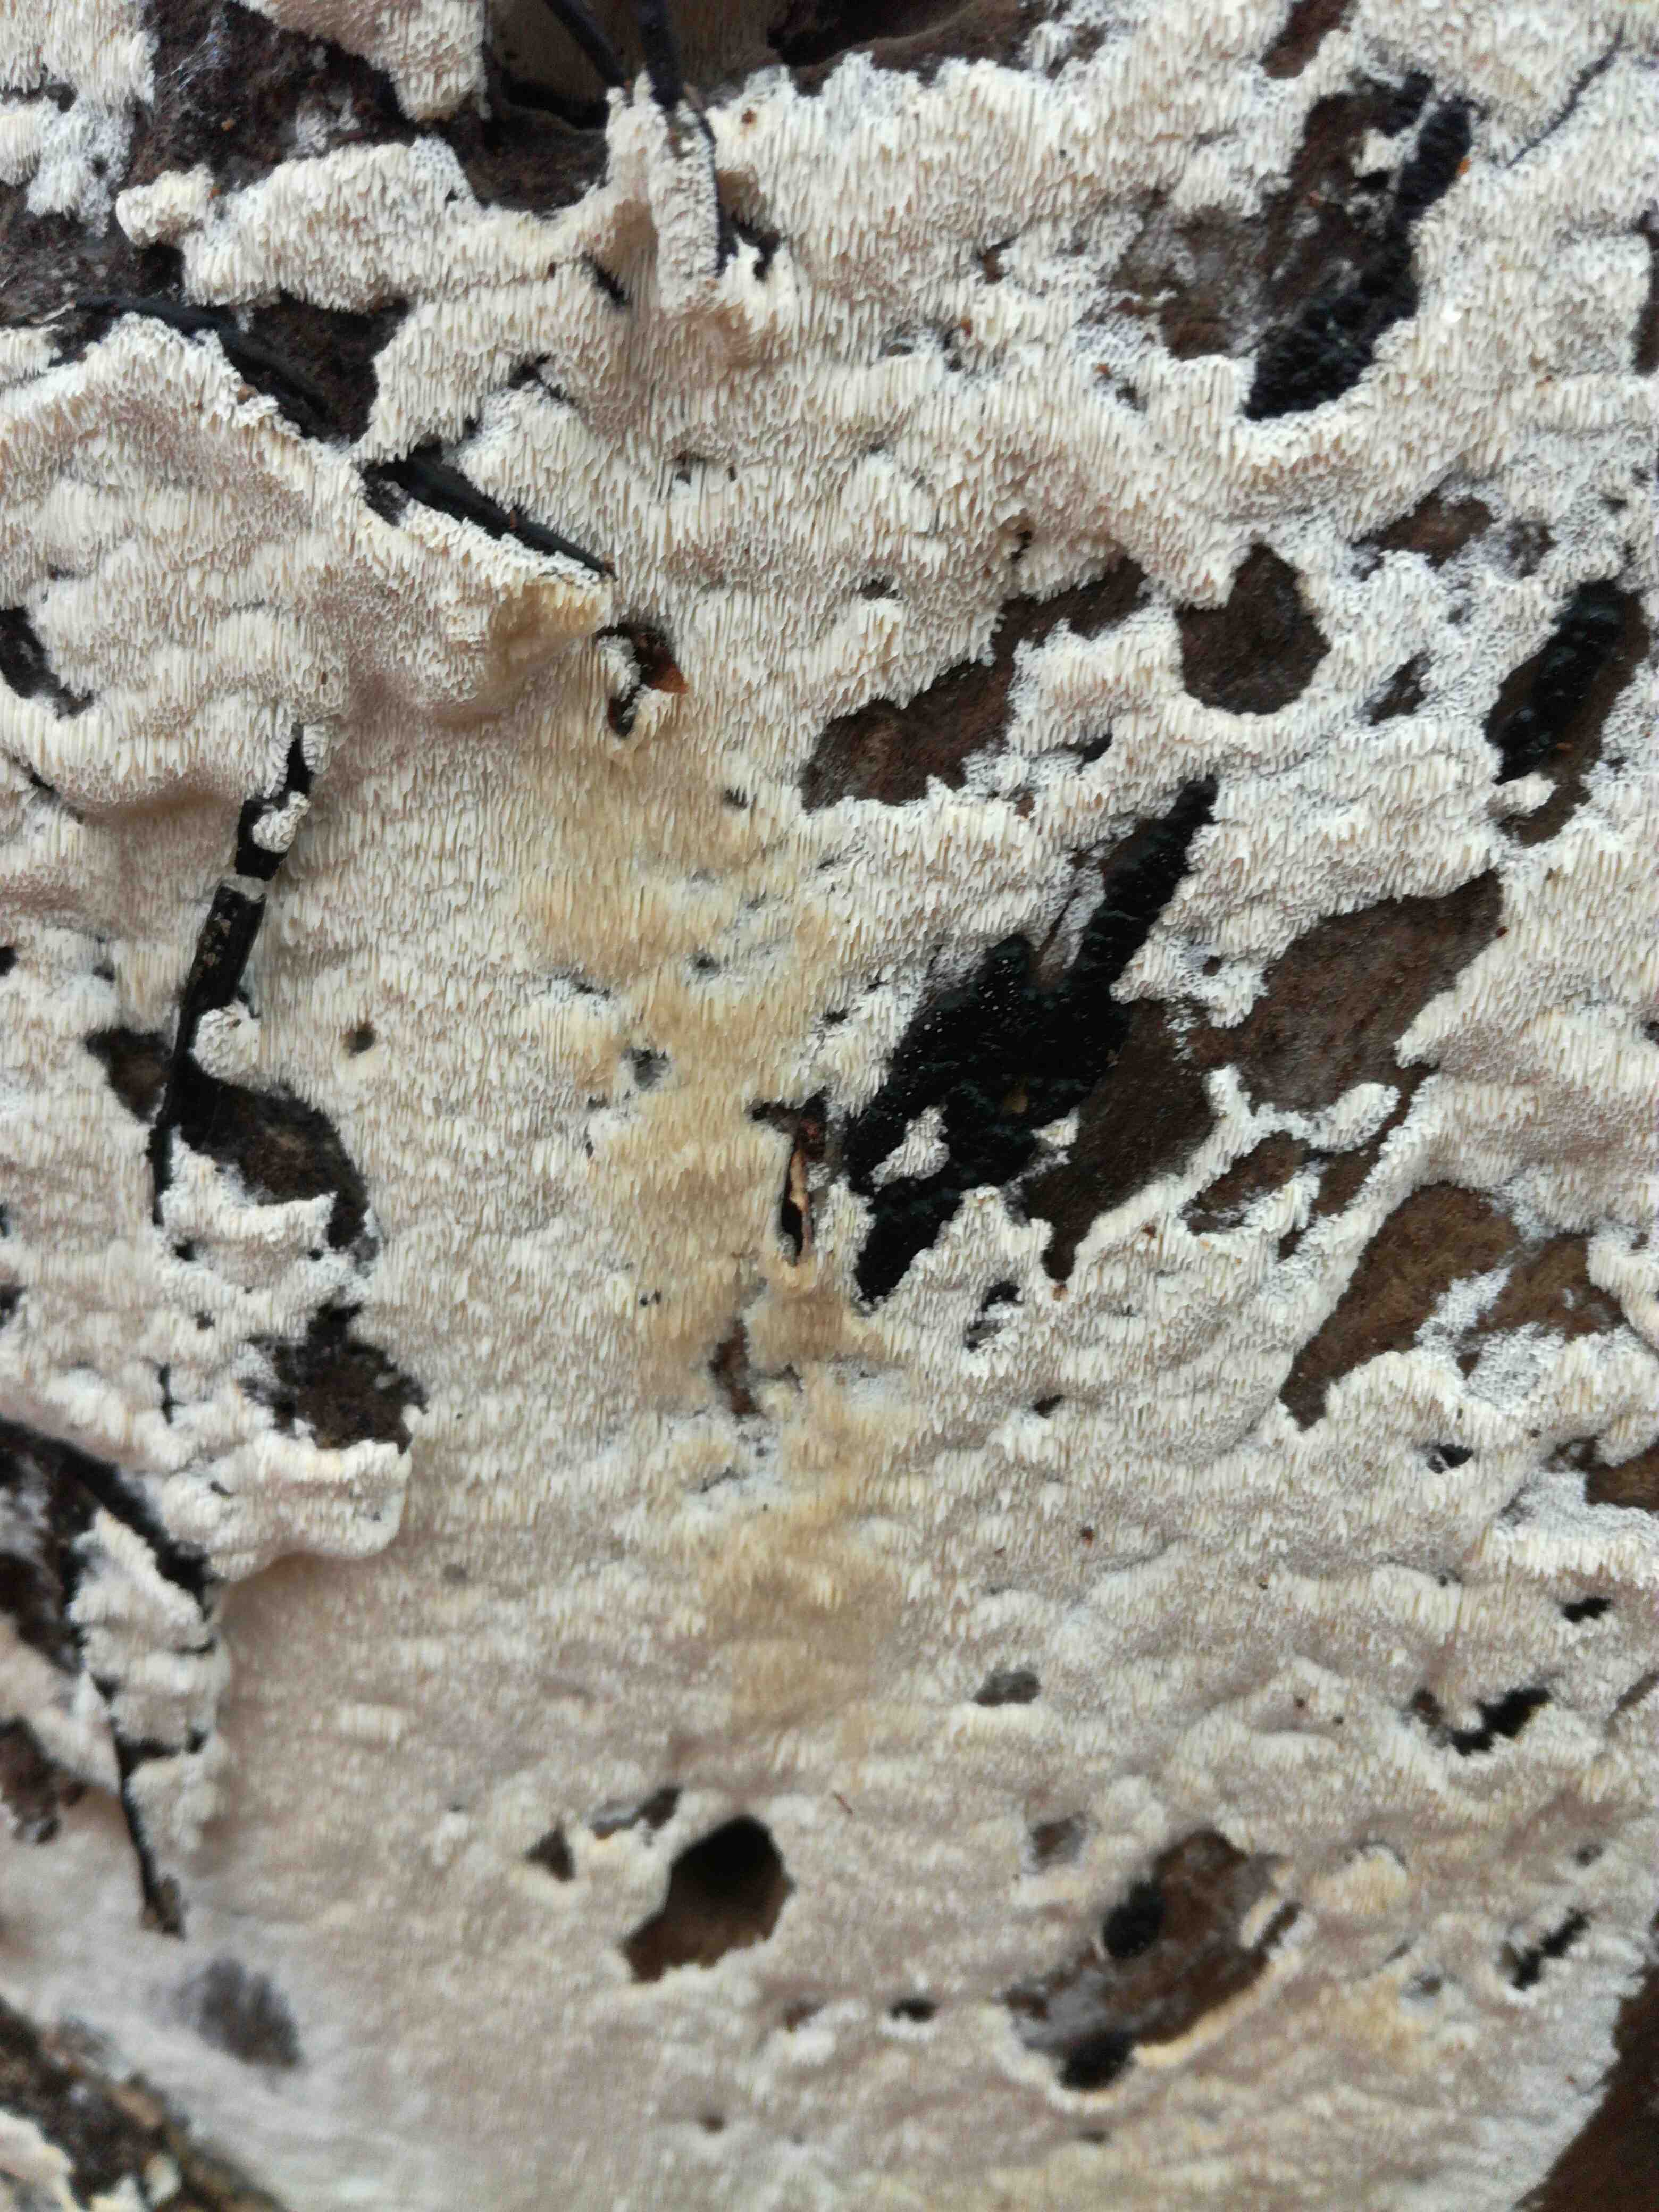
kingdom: Fungi
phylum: Basidiomycota
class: Agaricomycetes
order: Polyporales
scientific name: Polyporales
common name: poresvampordenen
